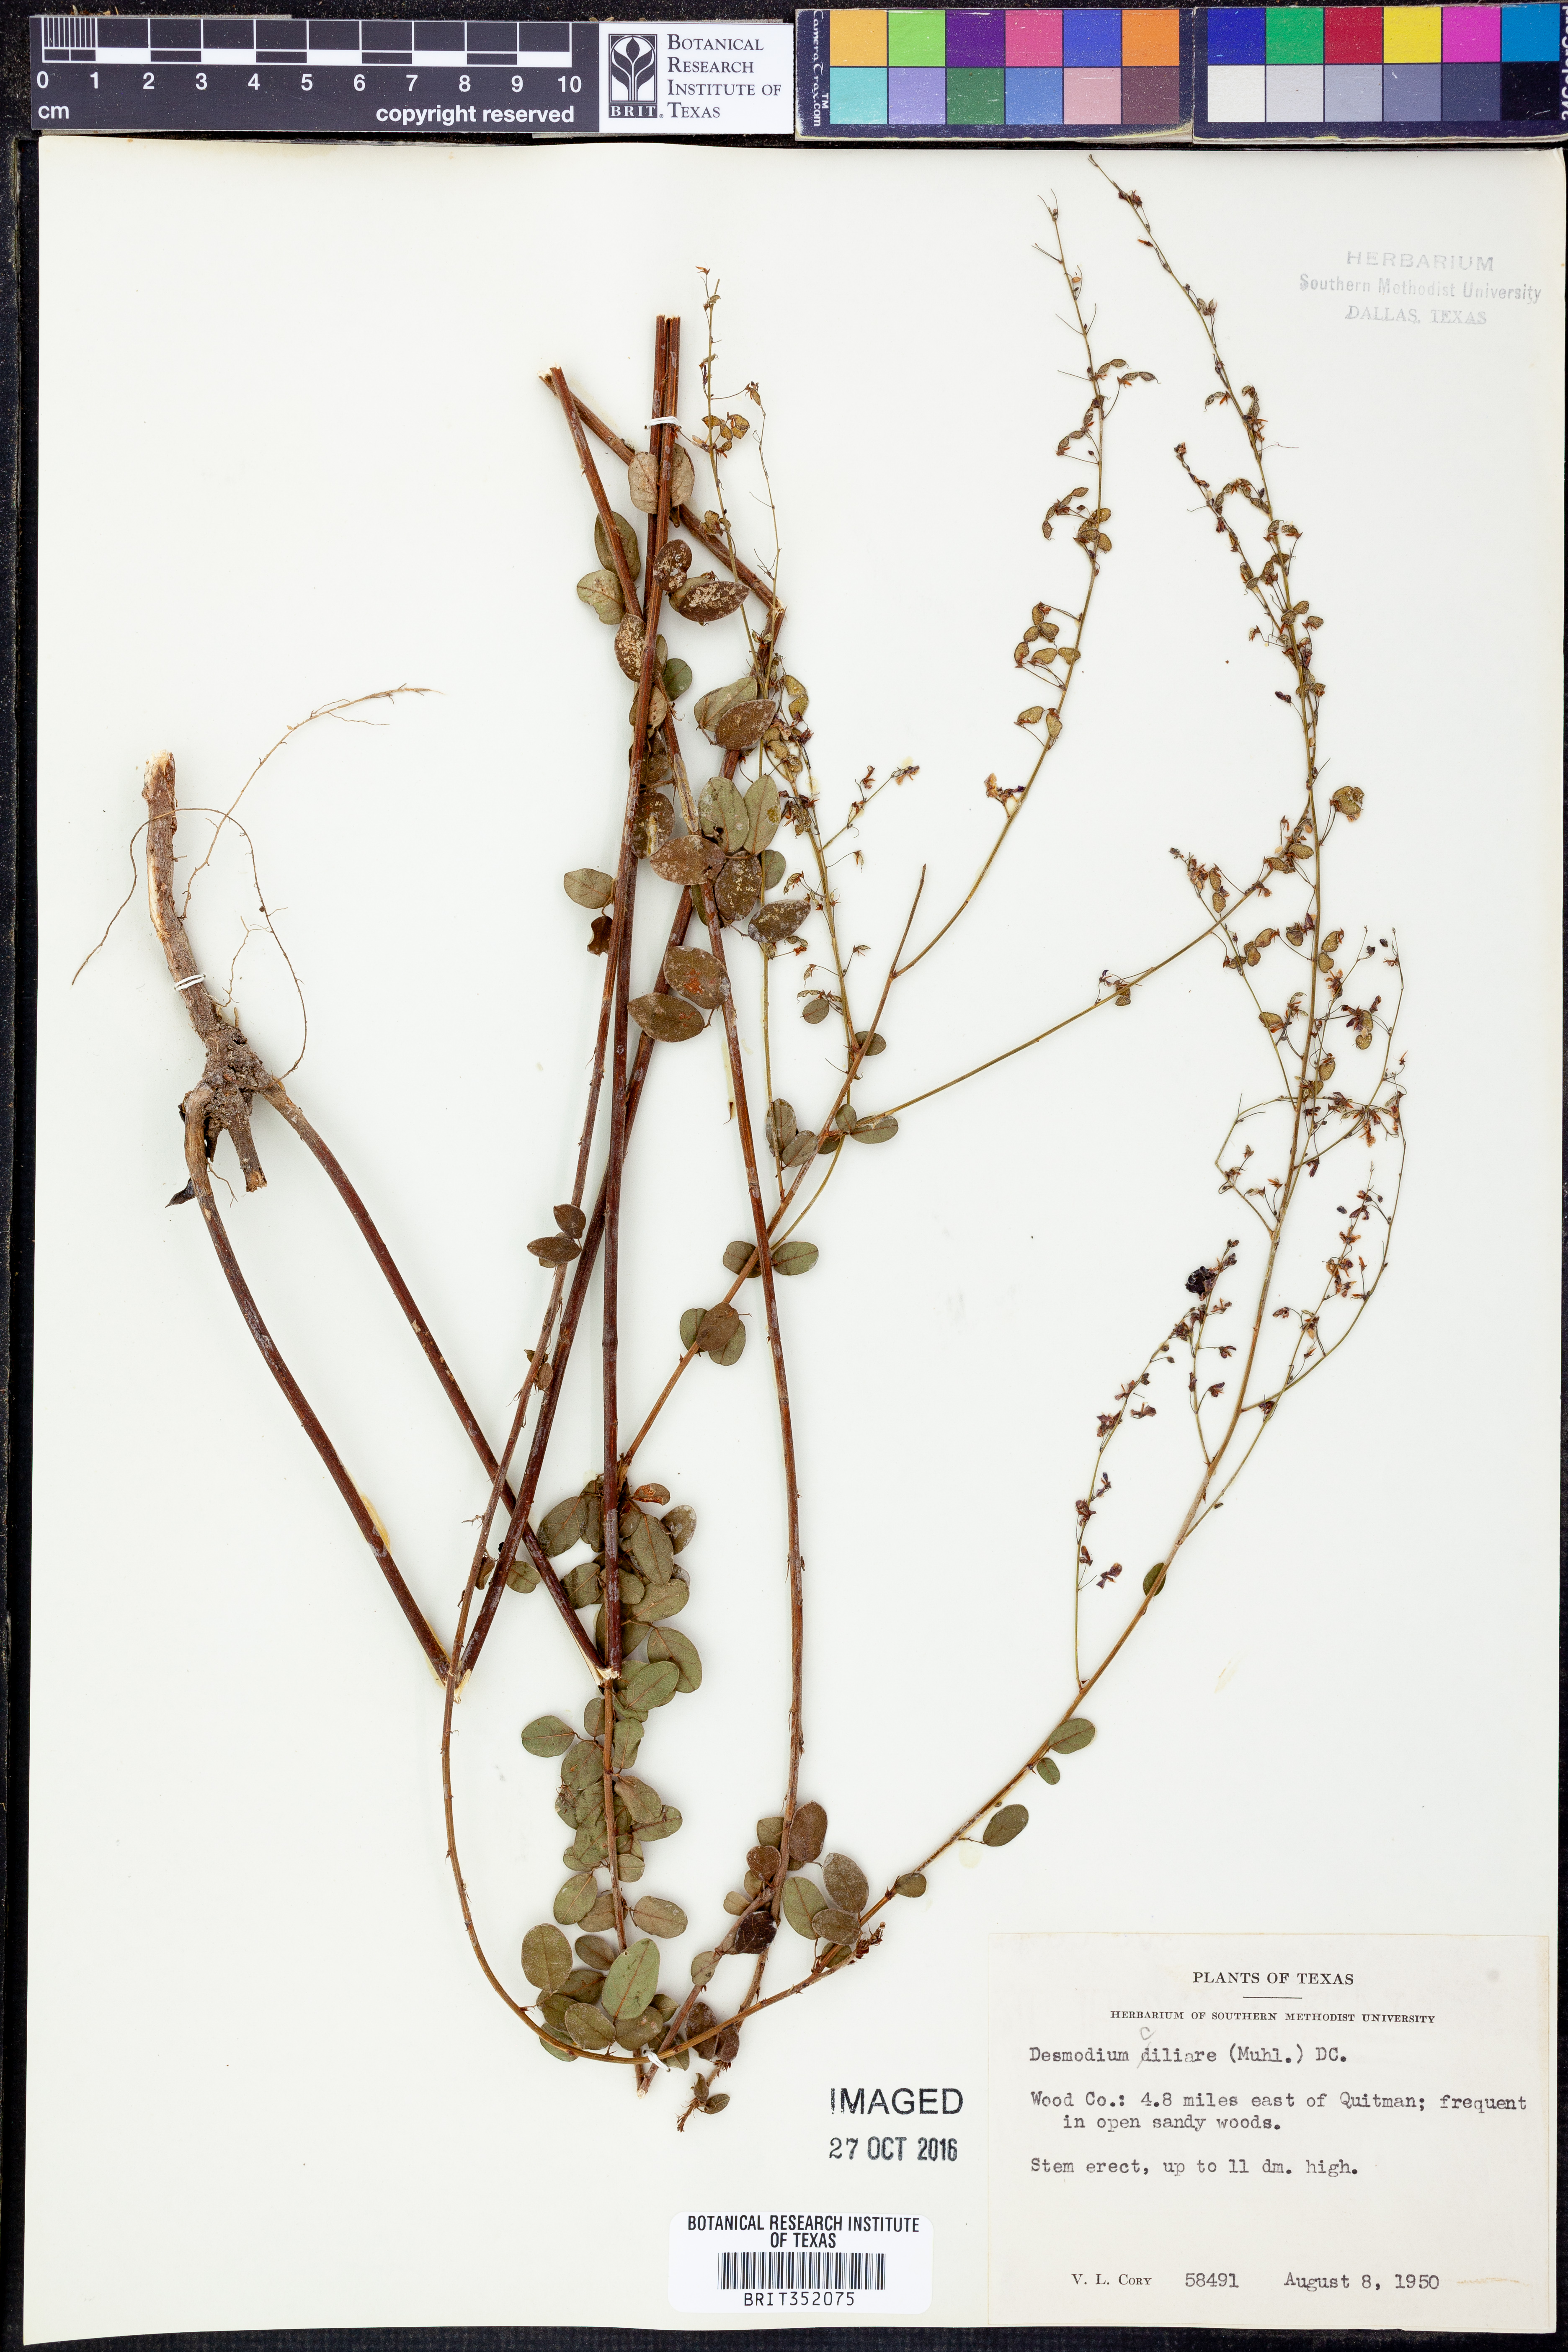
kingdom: Plantae
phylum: Tracheophyta
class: Magnoliopsida
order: Fabales
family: Fabaceae
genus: Desmodium
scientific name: Desmodium ciliare
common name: Hairy small-leaf ticktrefoil
